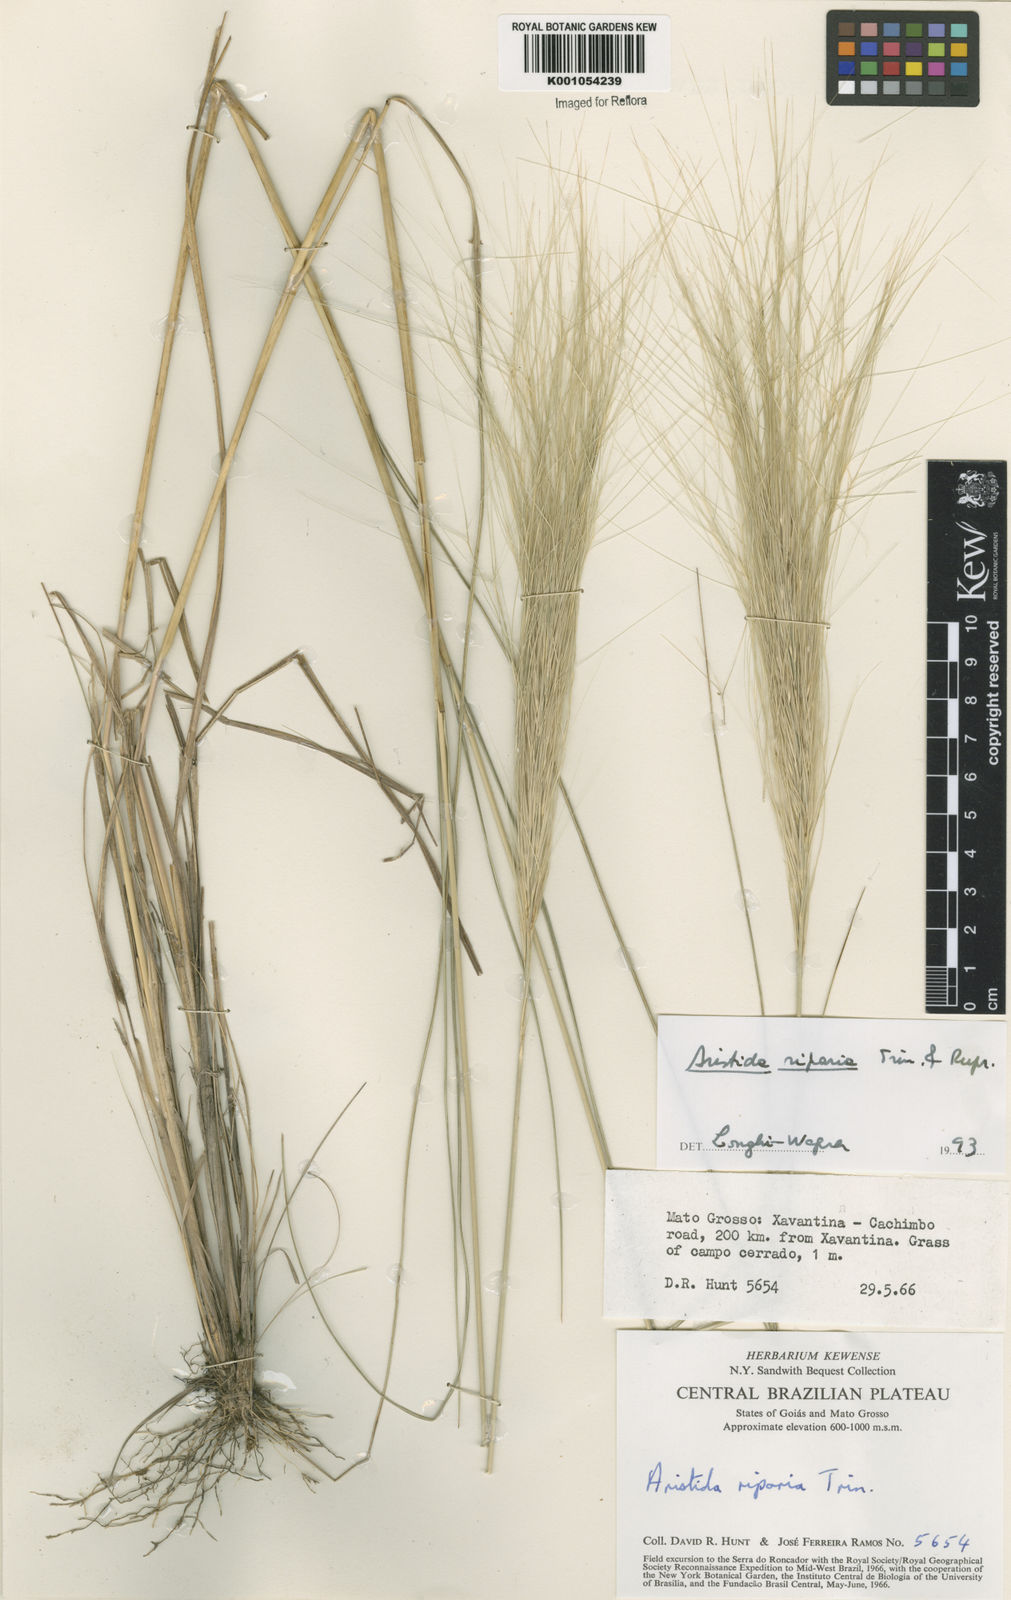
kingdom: Plantae
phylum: Tracheophyta
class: Liliopsida
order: Poales
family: Poaceae
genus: Aristida
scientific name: Aristida riparia
